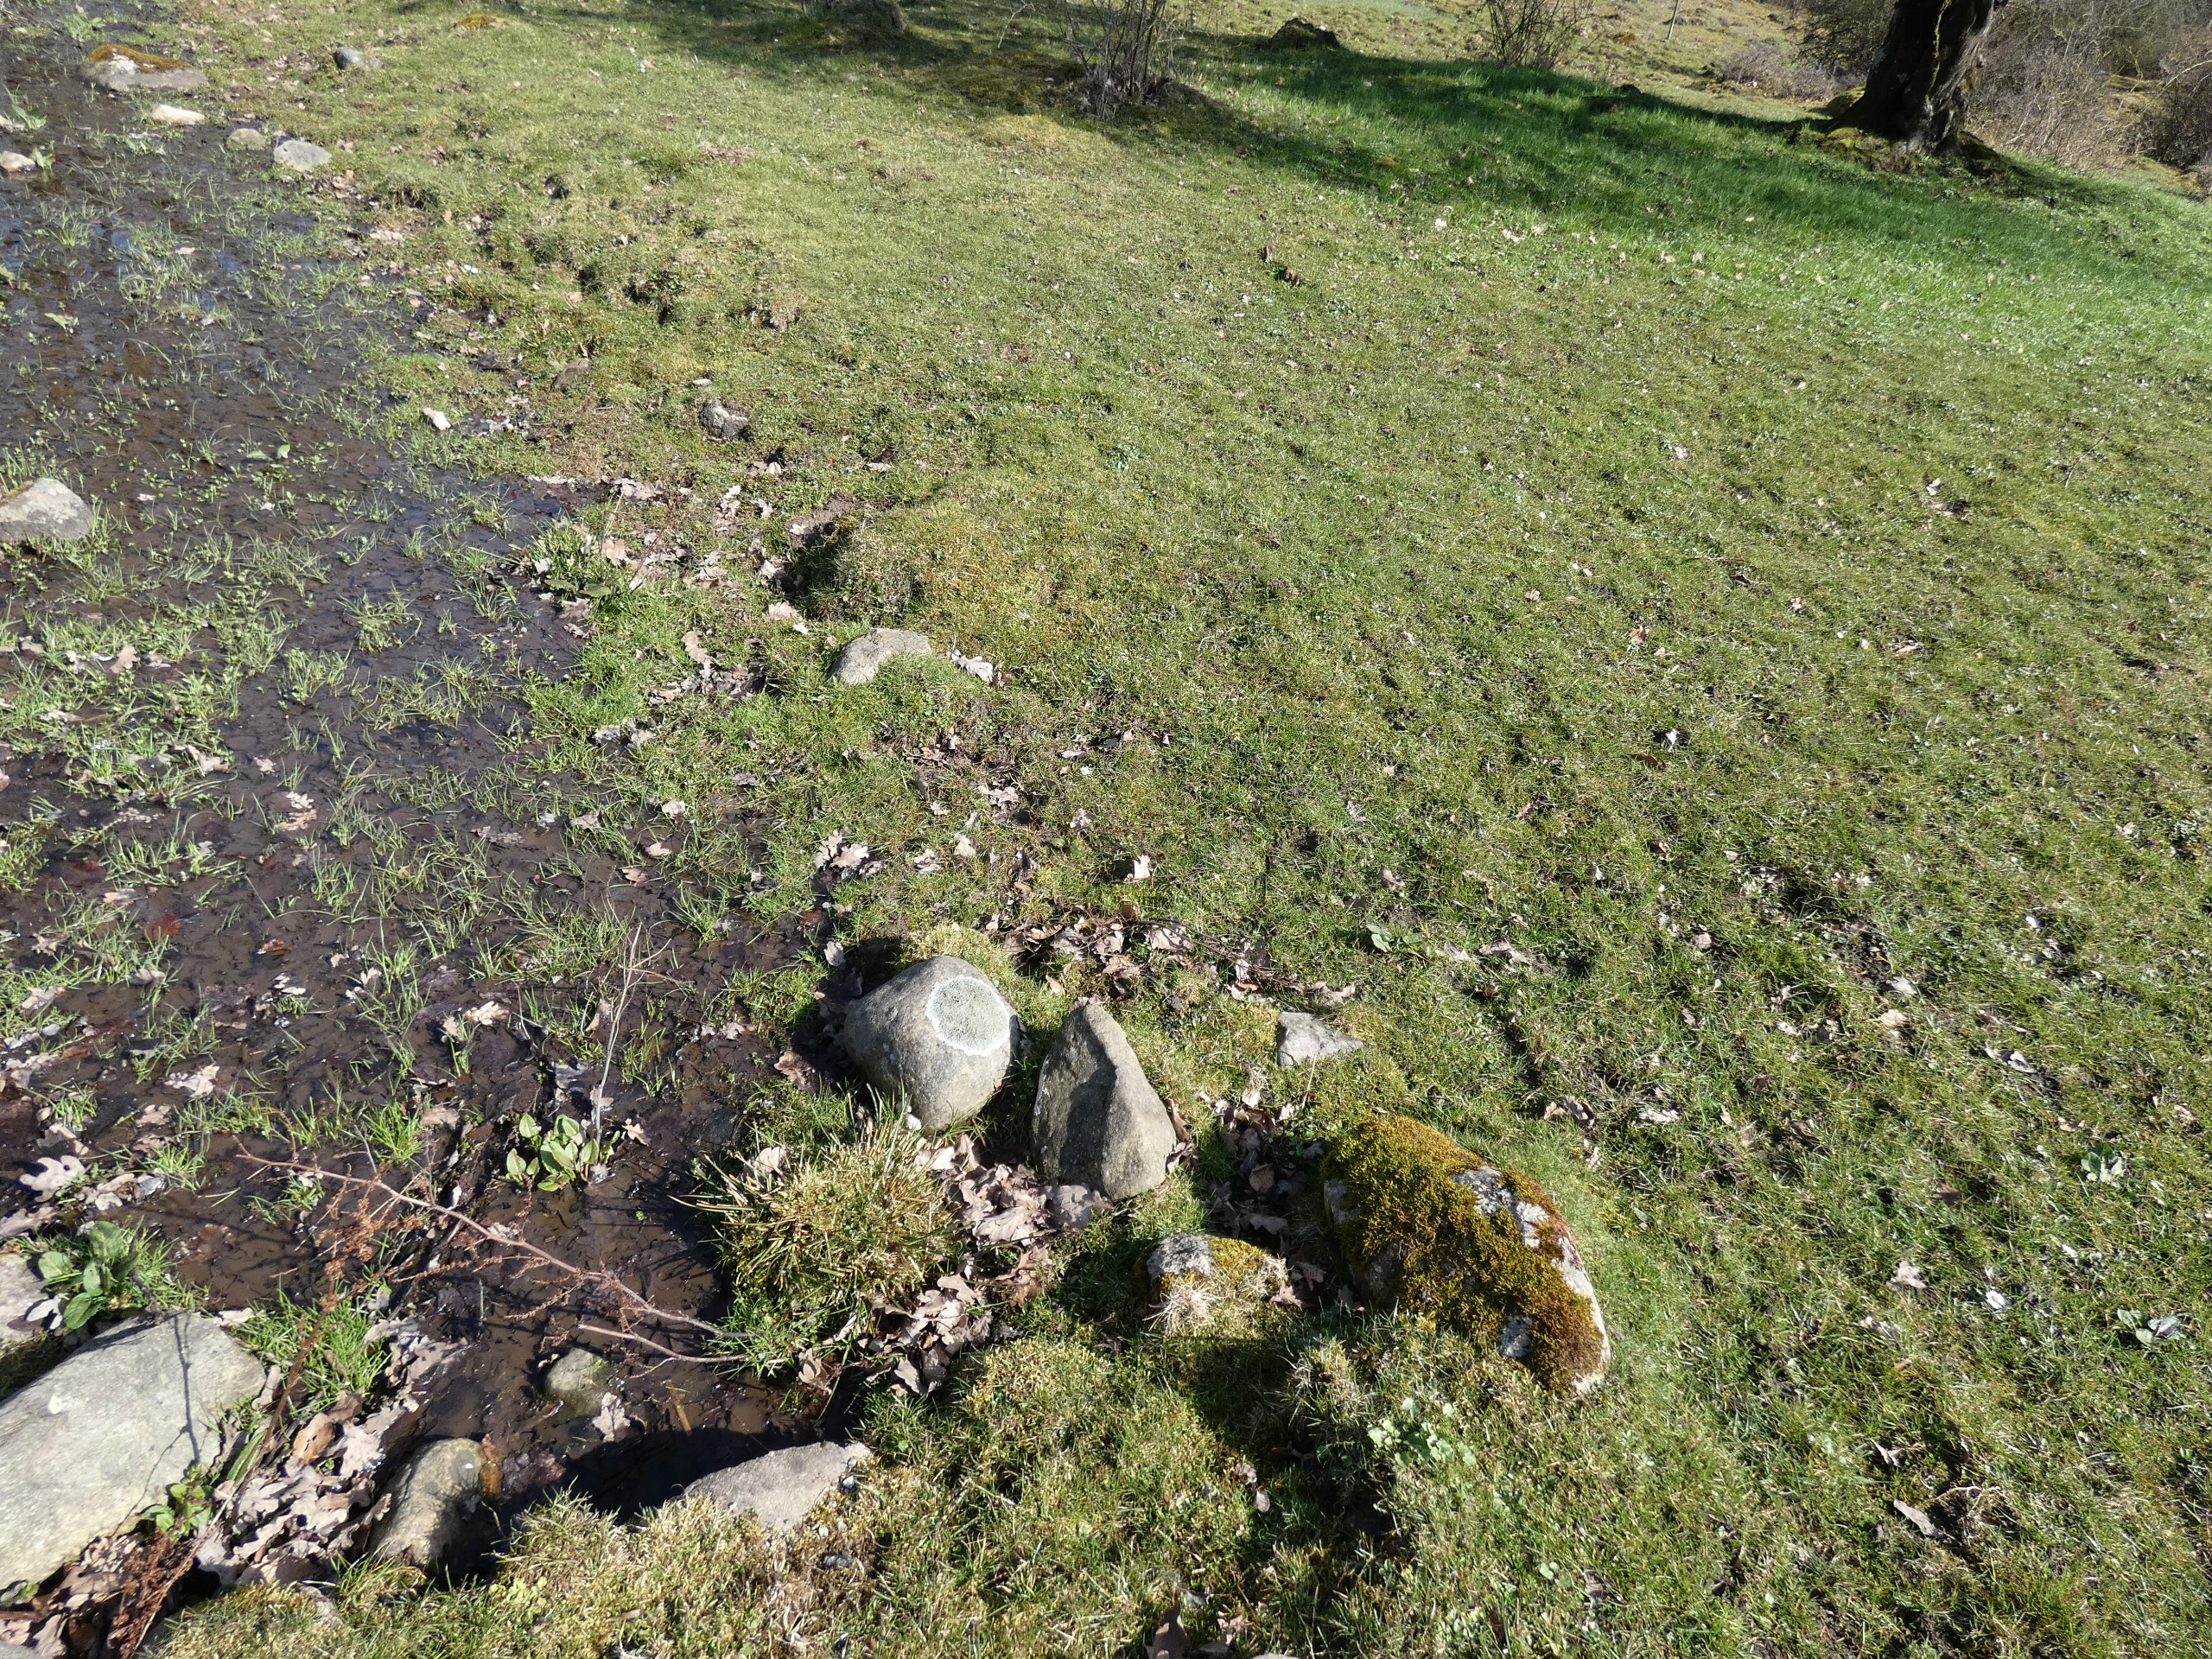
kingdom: Fungi
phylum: Ascomycota
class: Lecanoromycetes
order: Lecanorales
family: Parmeliaceae
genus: Xanthoparmelia
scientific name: Xanthoparmelia conspersa
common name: Messing-skållav
